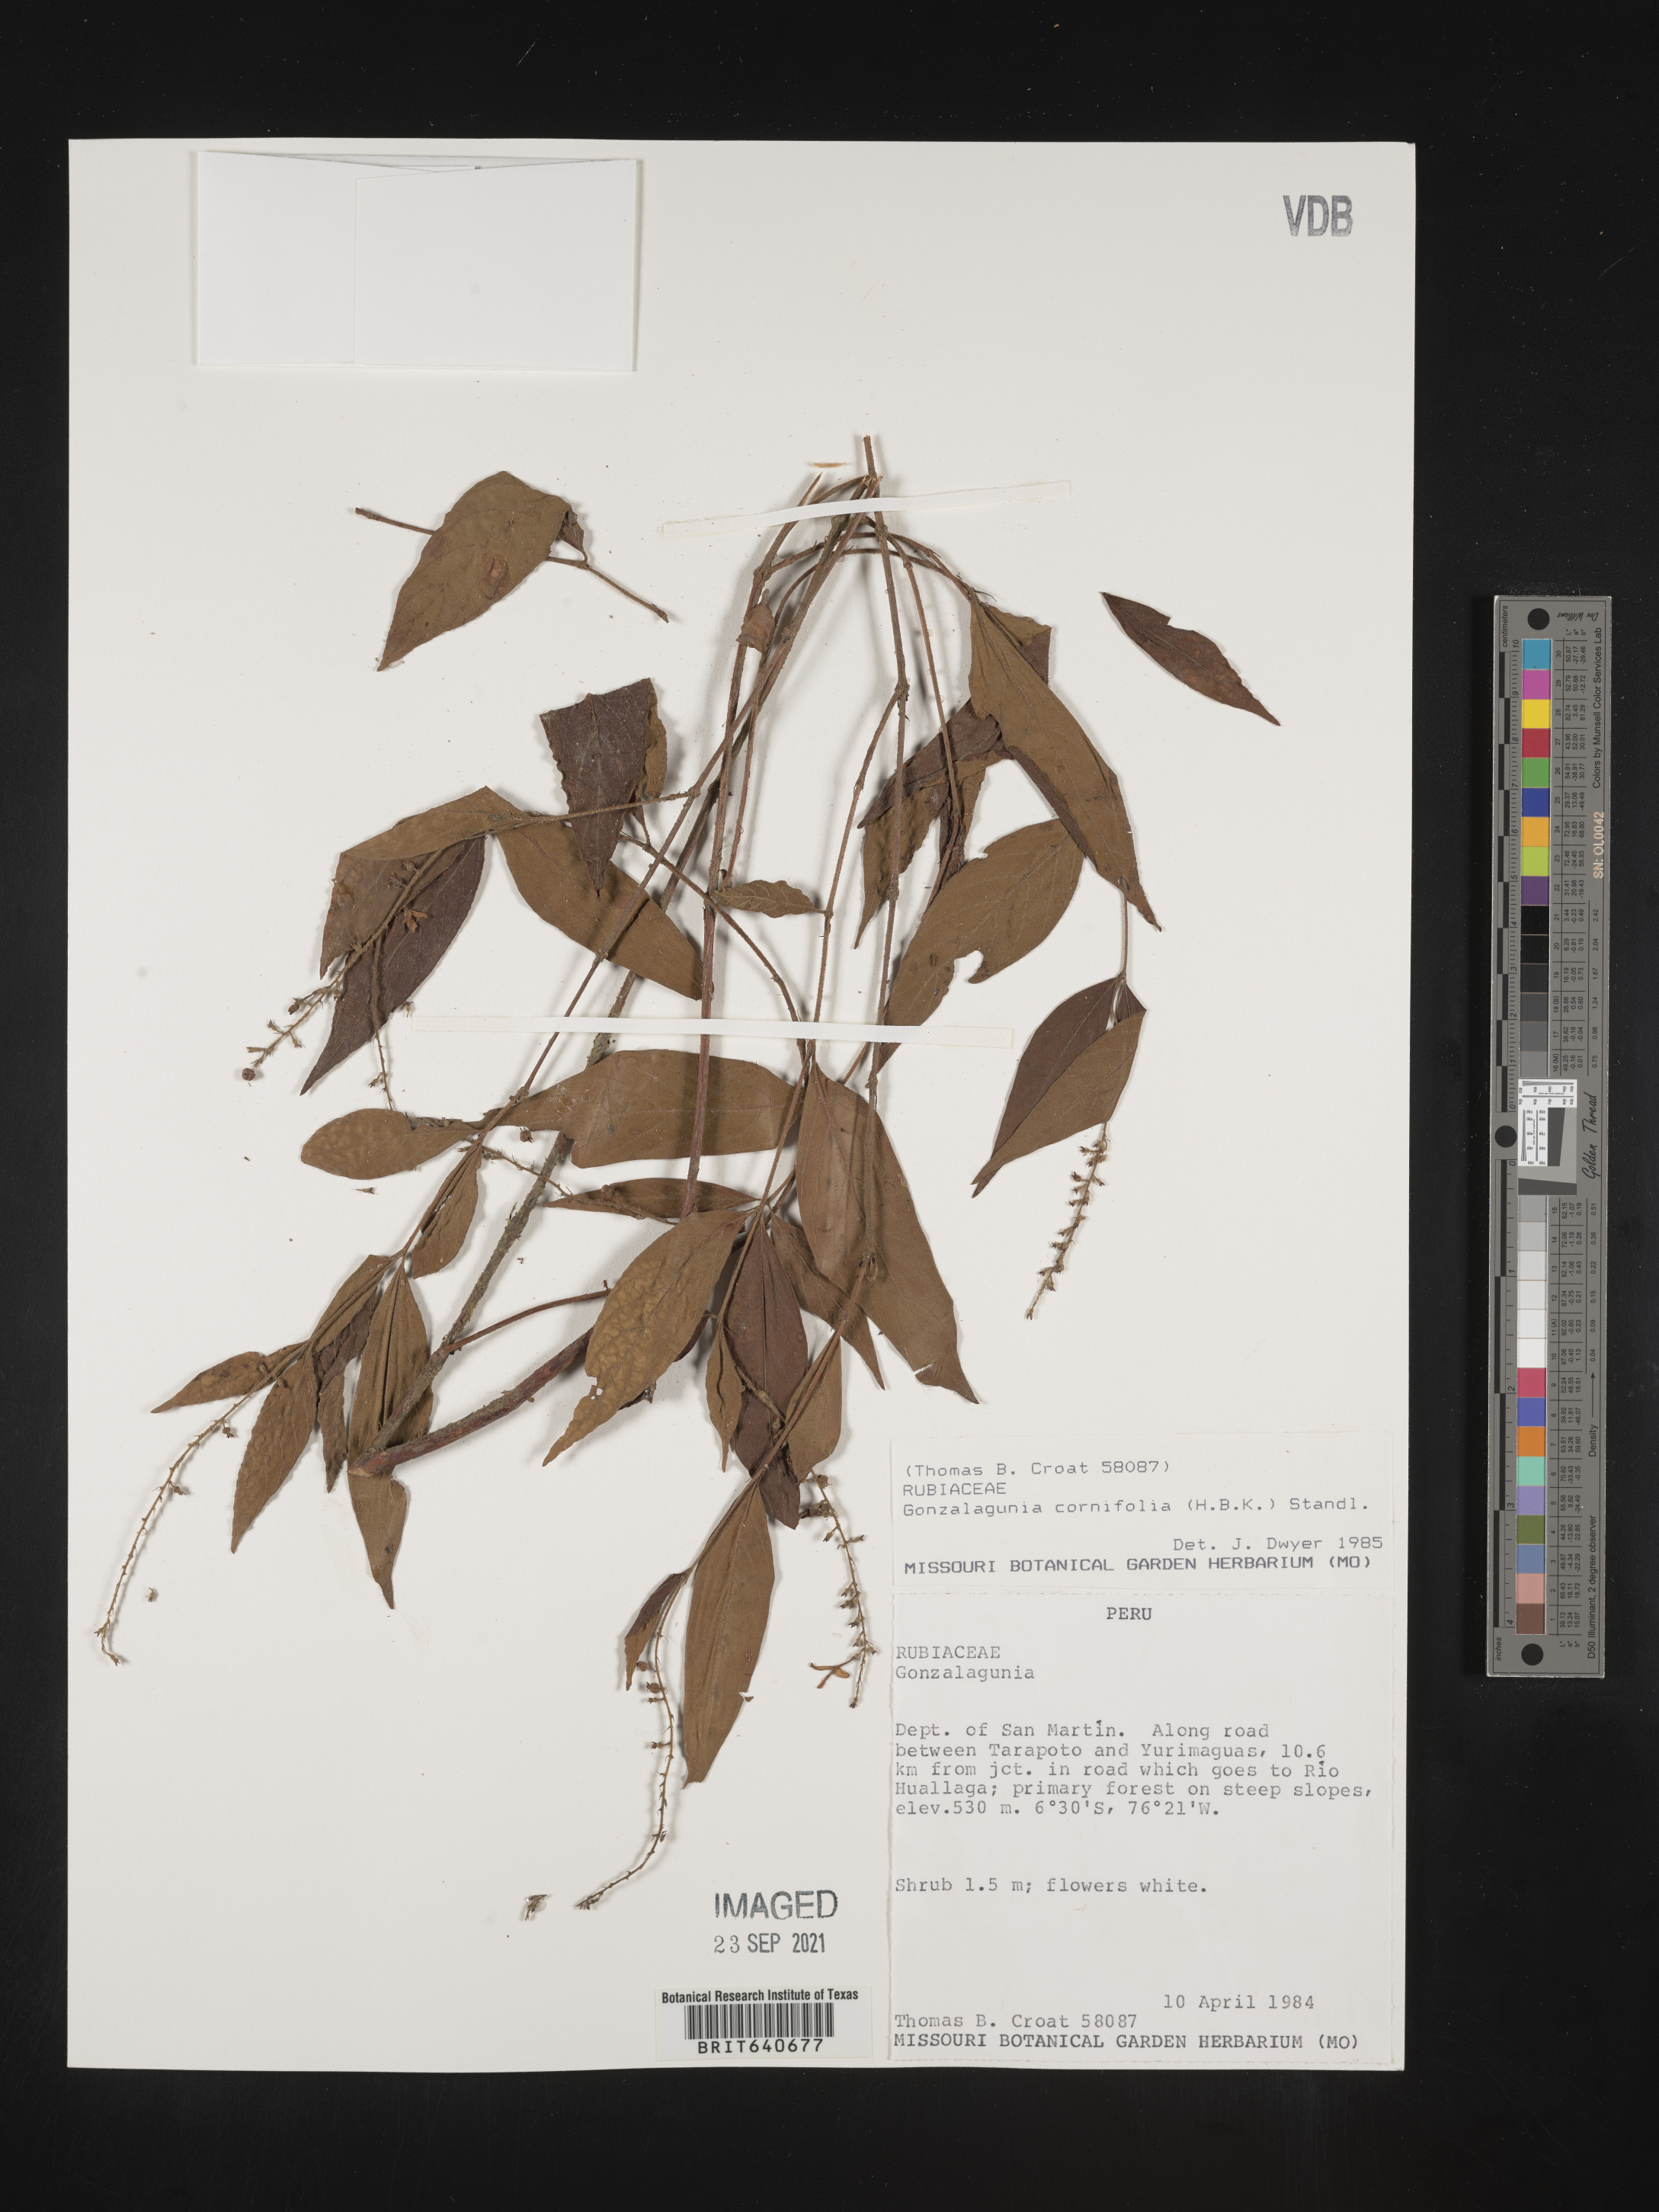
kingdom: Plantae
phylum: Tracheophyta
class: Magnoliopsida
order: Gentianales
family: Rubiaceae
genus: Gonzalagunia
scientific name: Gonzalagunia
